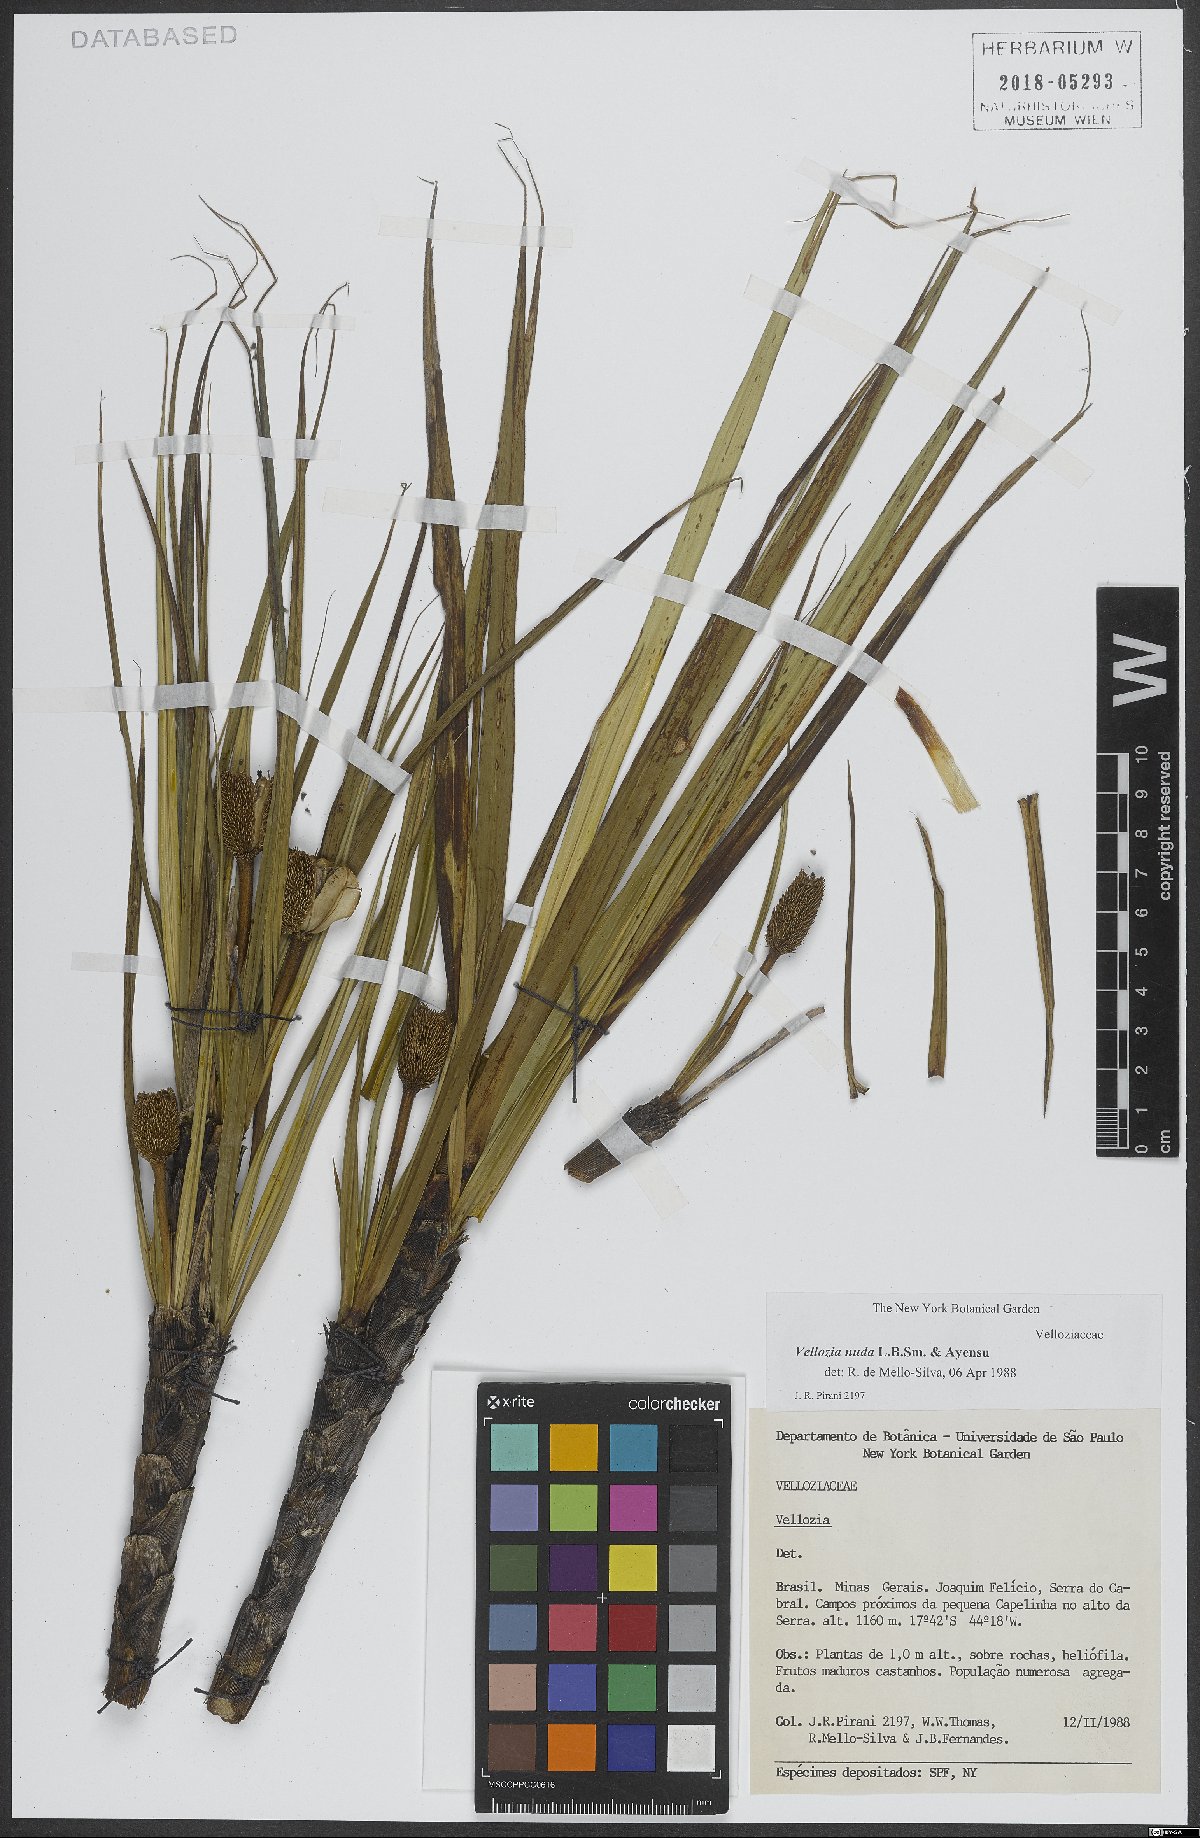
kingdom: Plantae
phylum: Tracheophyta
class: Liliopsida
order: Pandanales
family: Velloziaceae
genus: Vellozia
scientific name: Vellozia nuda
